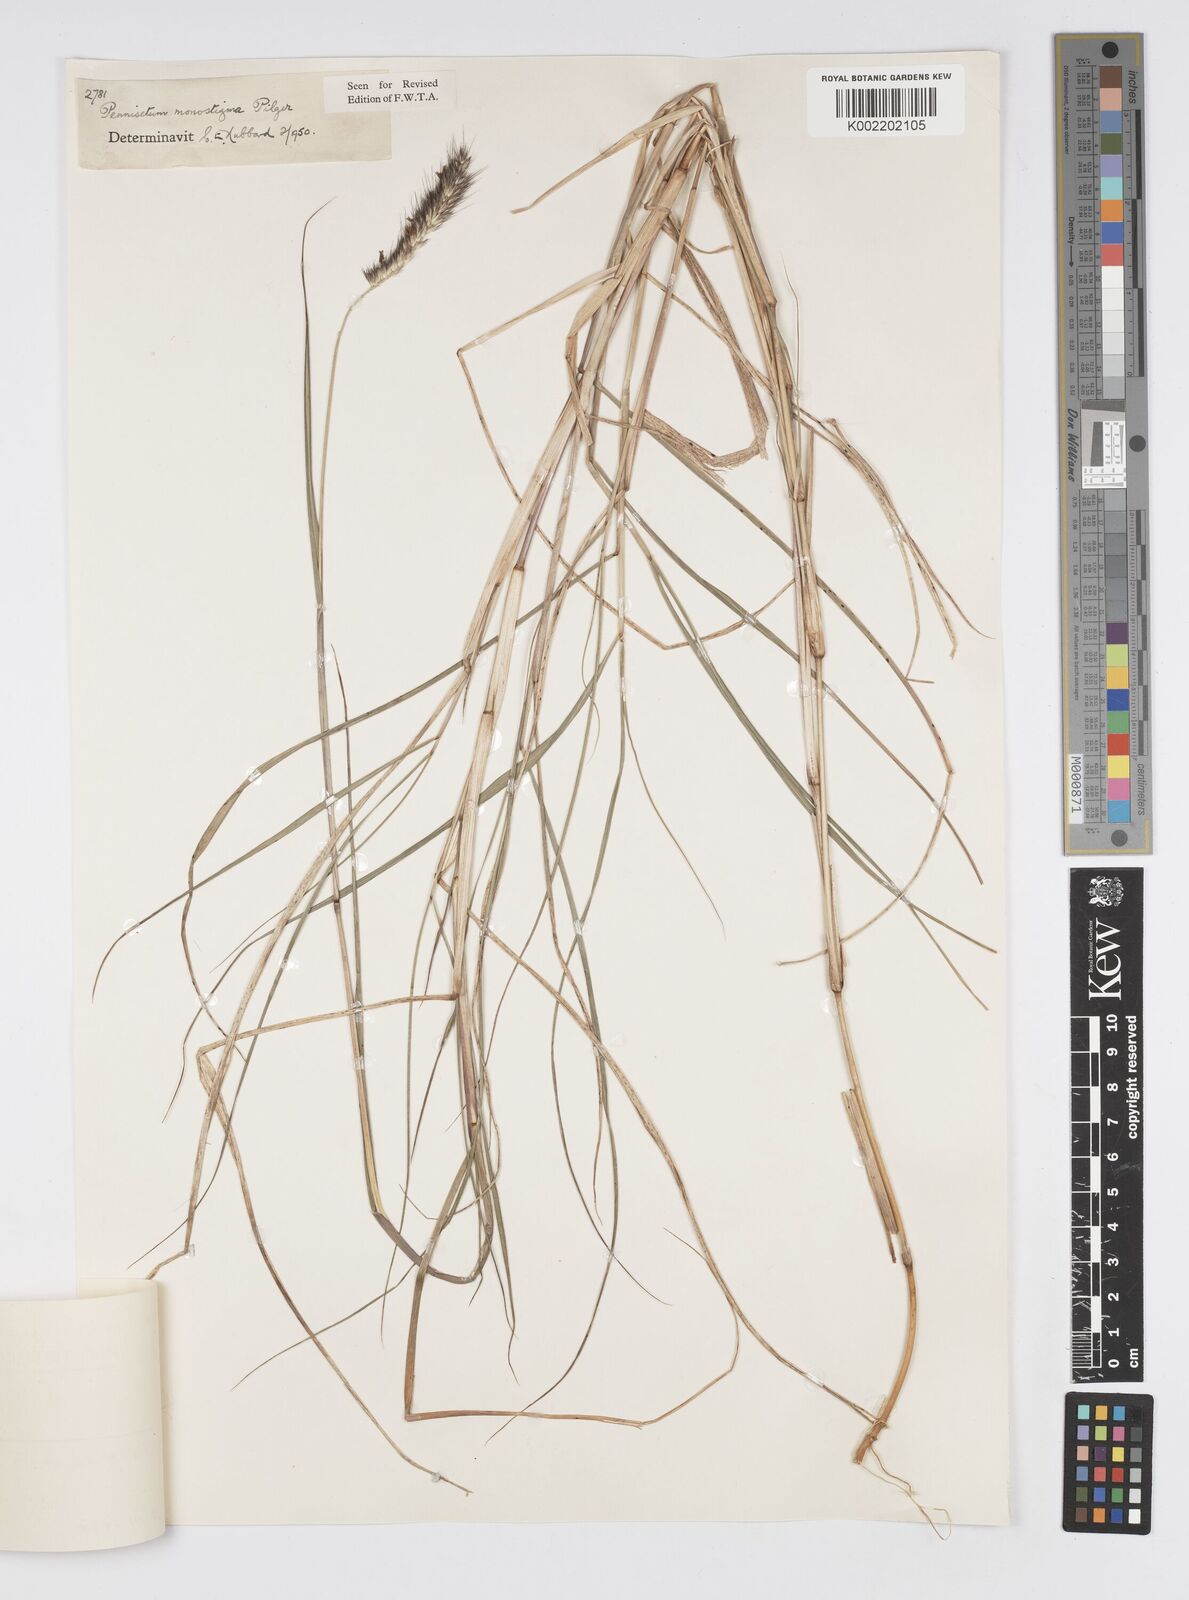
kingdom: Plantae
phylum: Tracheophyta
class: Liliopsida
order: Poales
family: Poaceae
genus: Cenchrus
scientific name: Cenchrus monostigma
